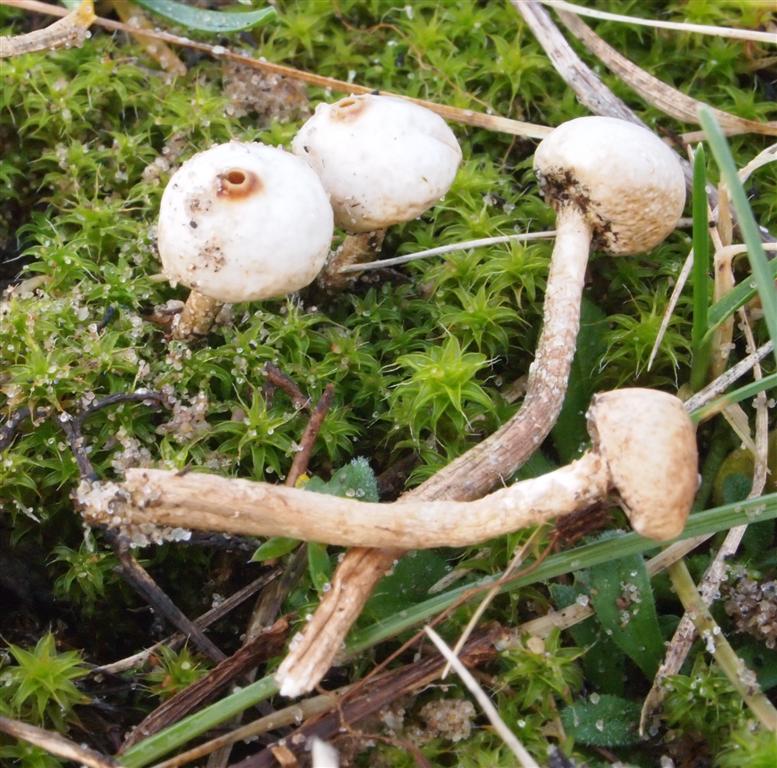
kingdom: Fungi
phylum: Basidiomycota
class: Agaricomycetes
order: Agaricales
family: Agaricaceae
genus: Tulostoma
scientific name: Tulostoma brumale
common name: vinter-stilkbovist
